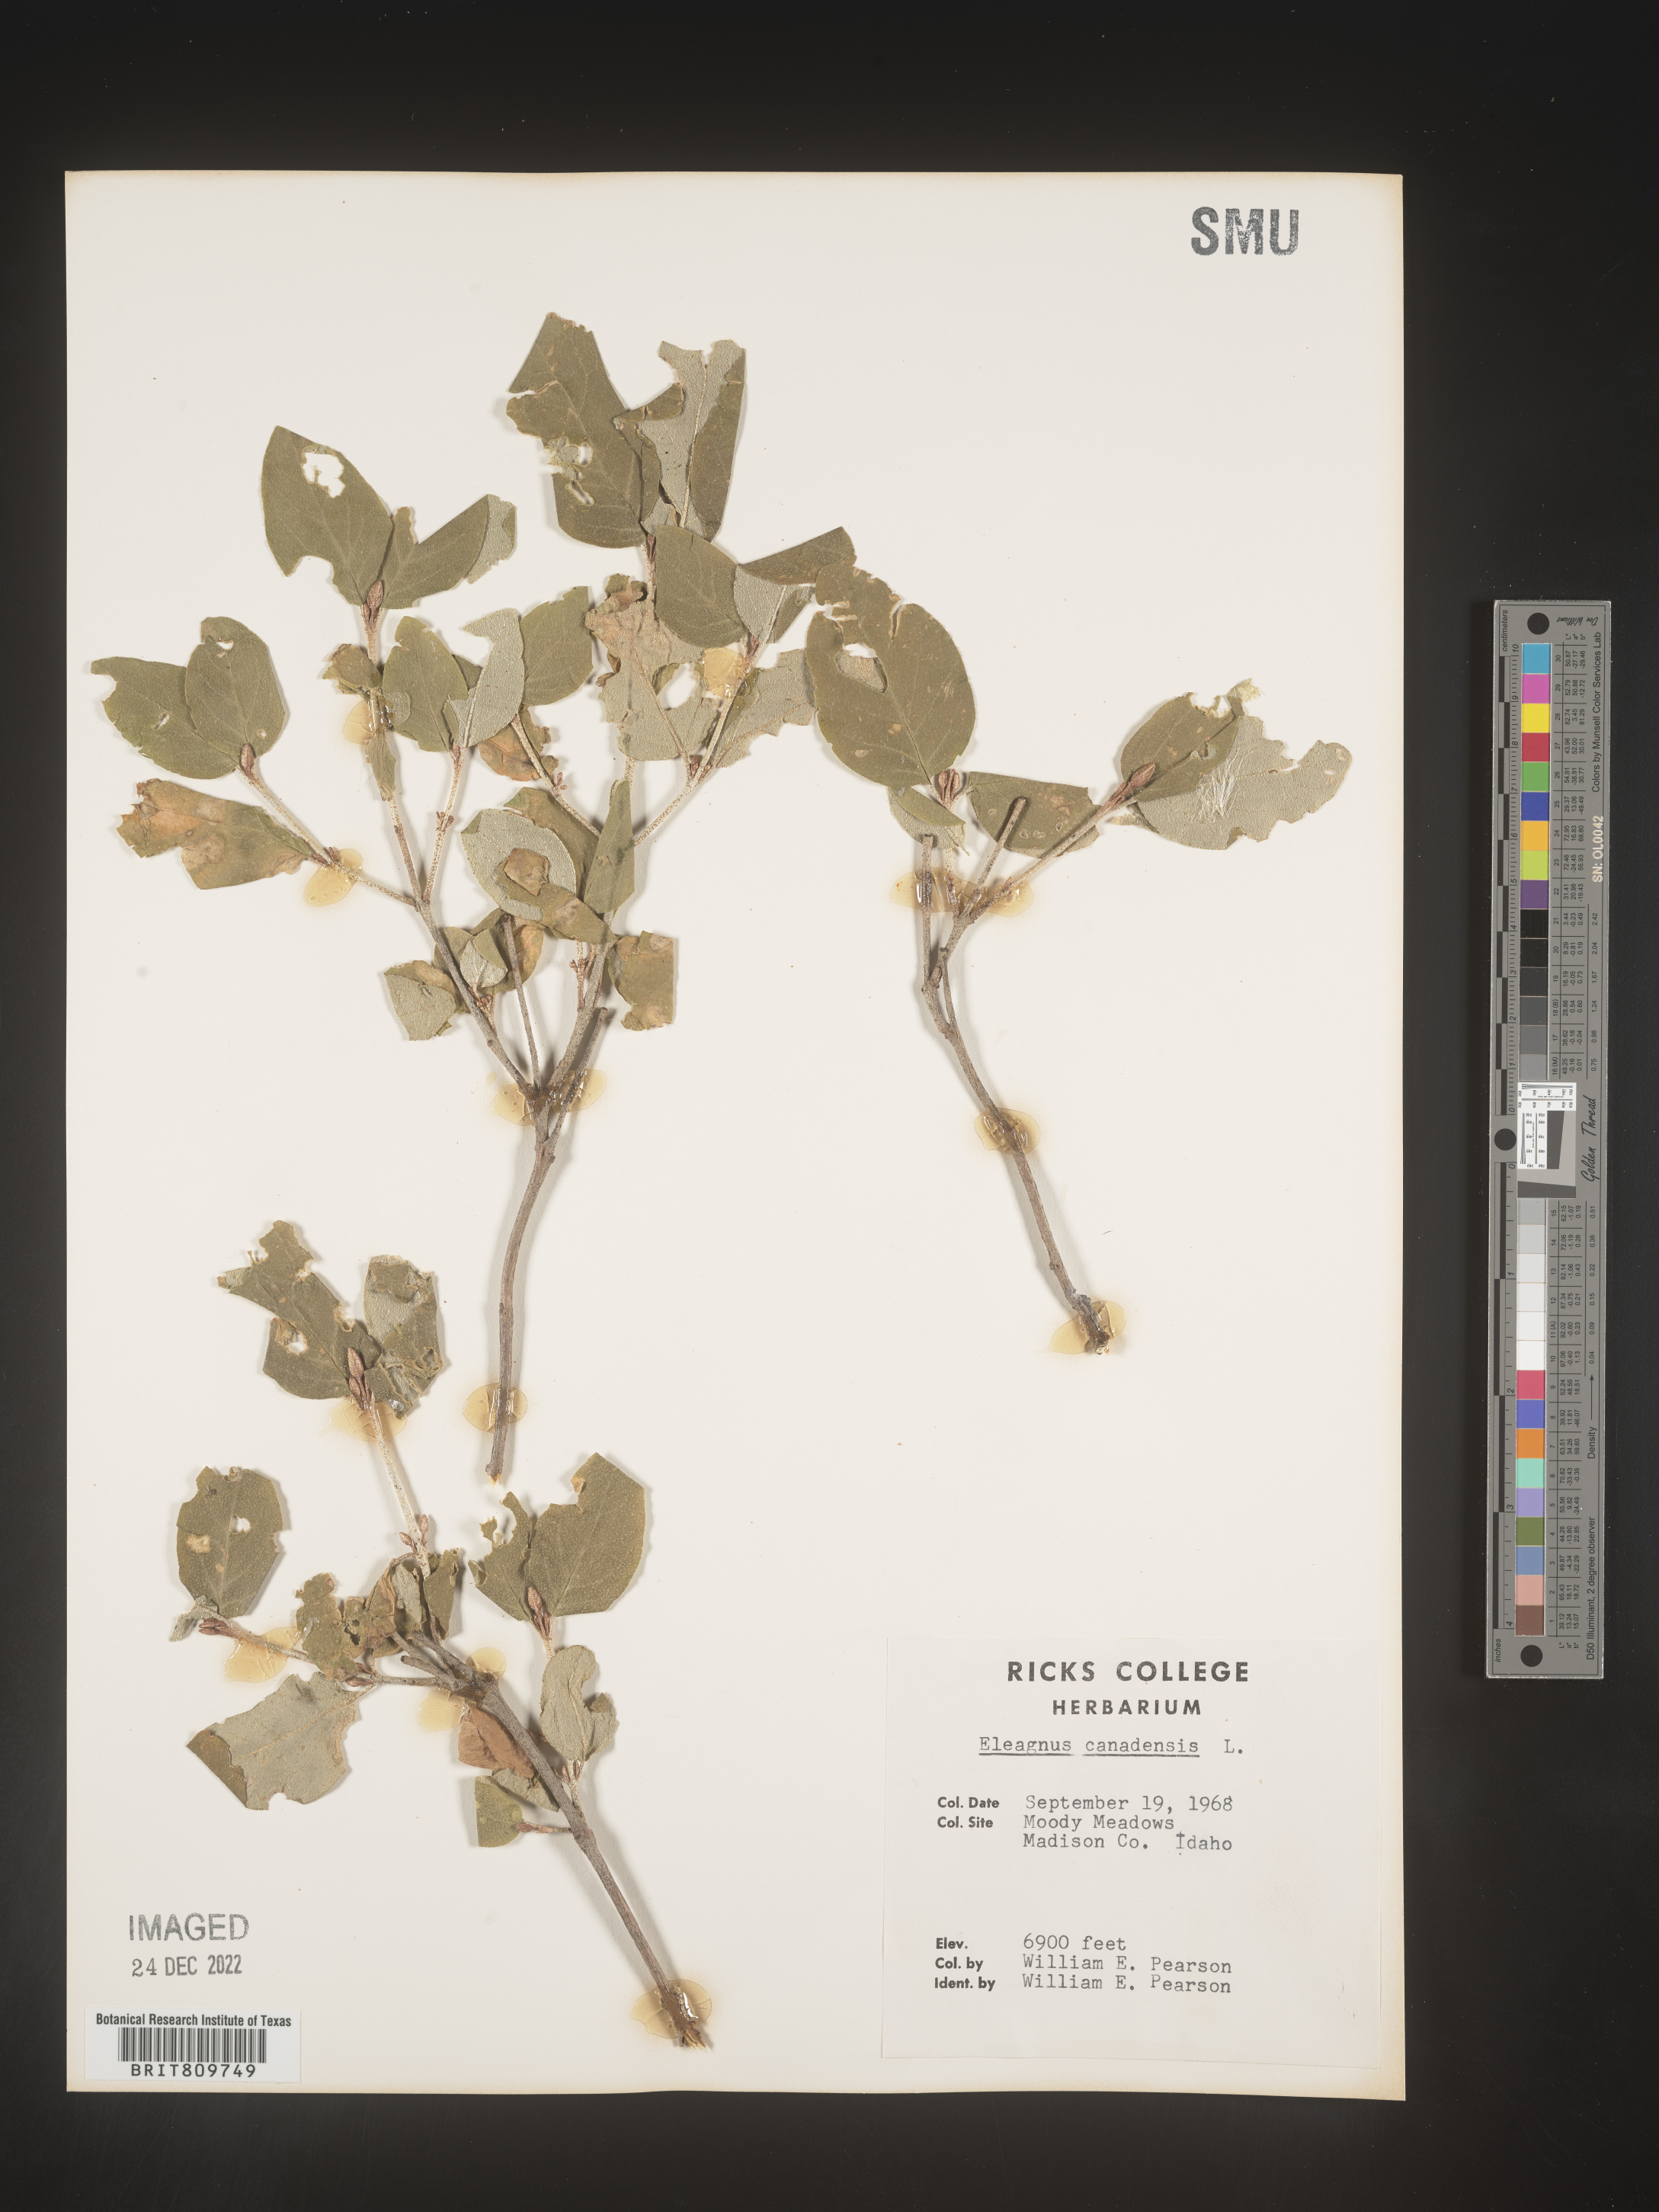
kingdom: Plantae
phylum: Tracheophyta
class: Magnoliopsida
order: Rosales
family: Elaeagnaceae
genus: Shepherdia
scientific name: Shepherdia canadensis
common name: Soapberry
